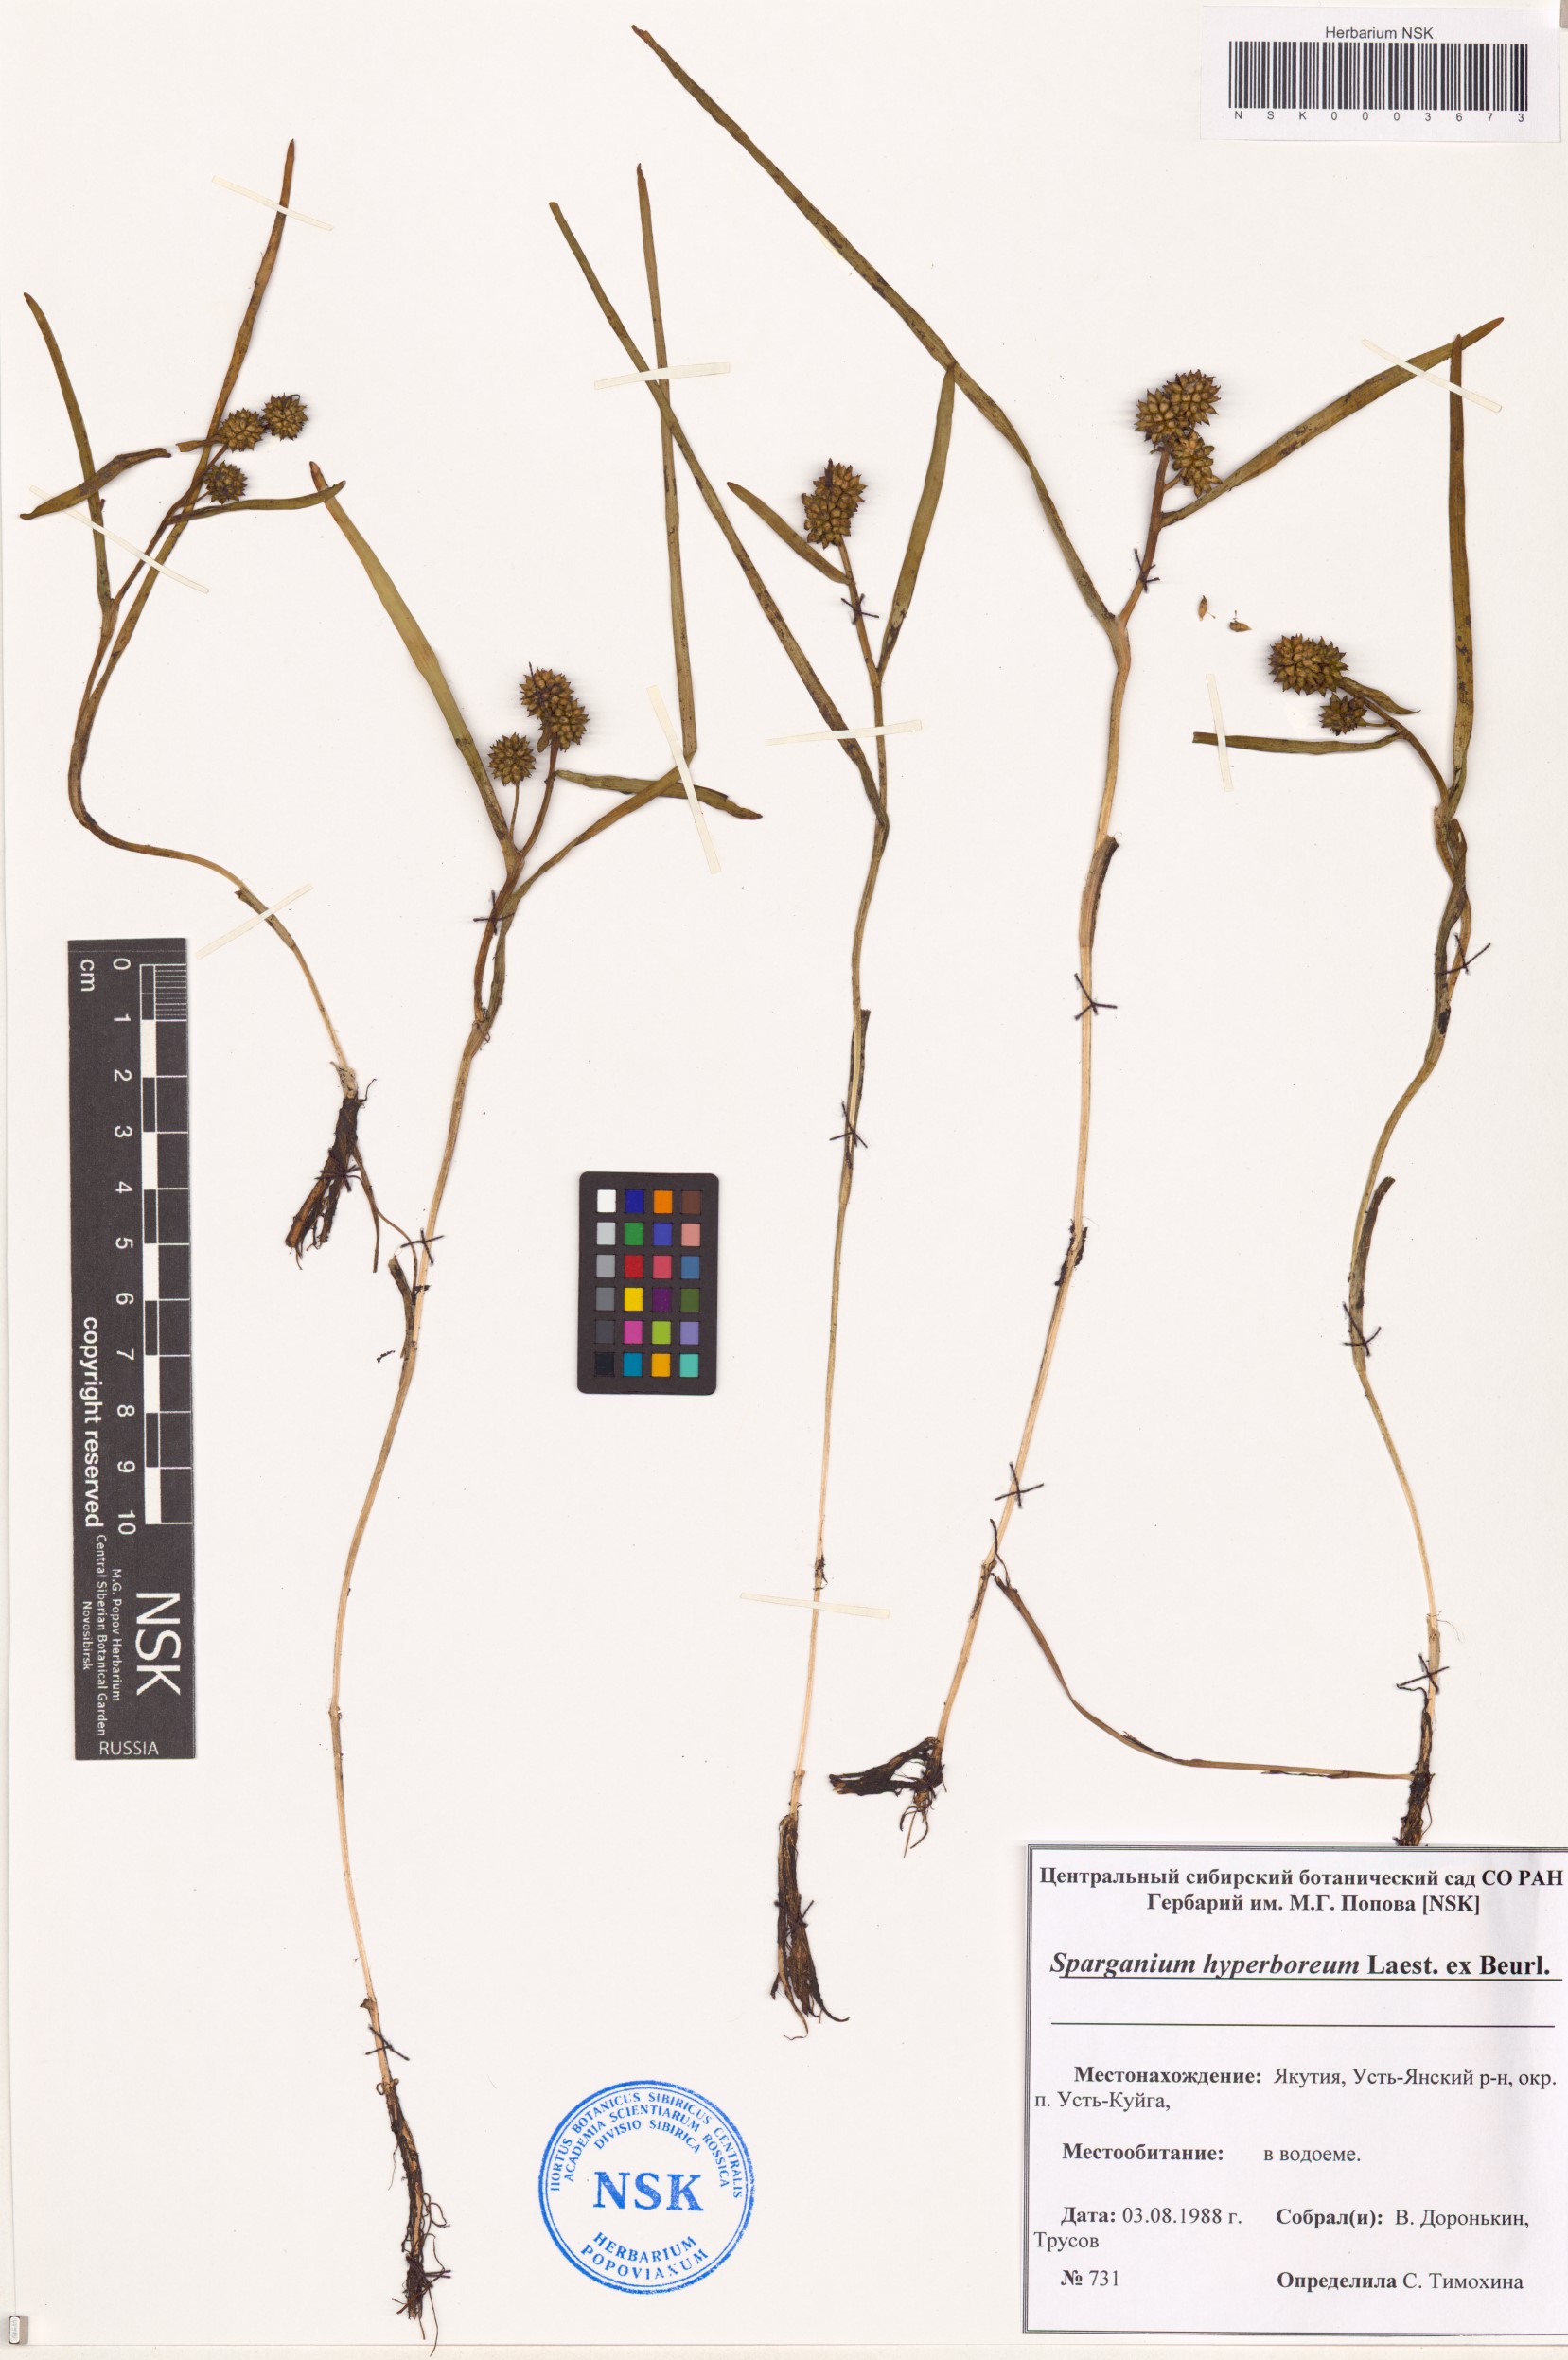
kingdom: Plantae
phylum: Tracheophyta
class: Liliopsida
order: Poales
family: Typhaceae
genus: Sparganium
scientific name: Sparganium hyperboreum
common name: Arctic burreed
